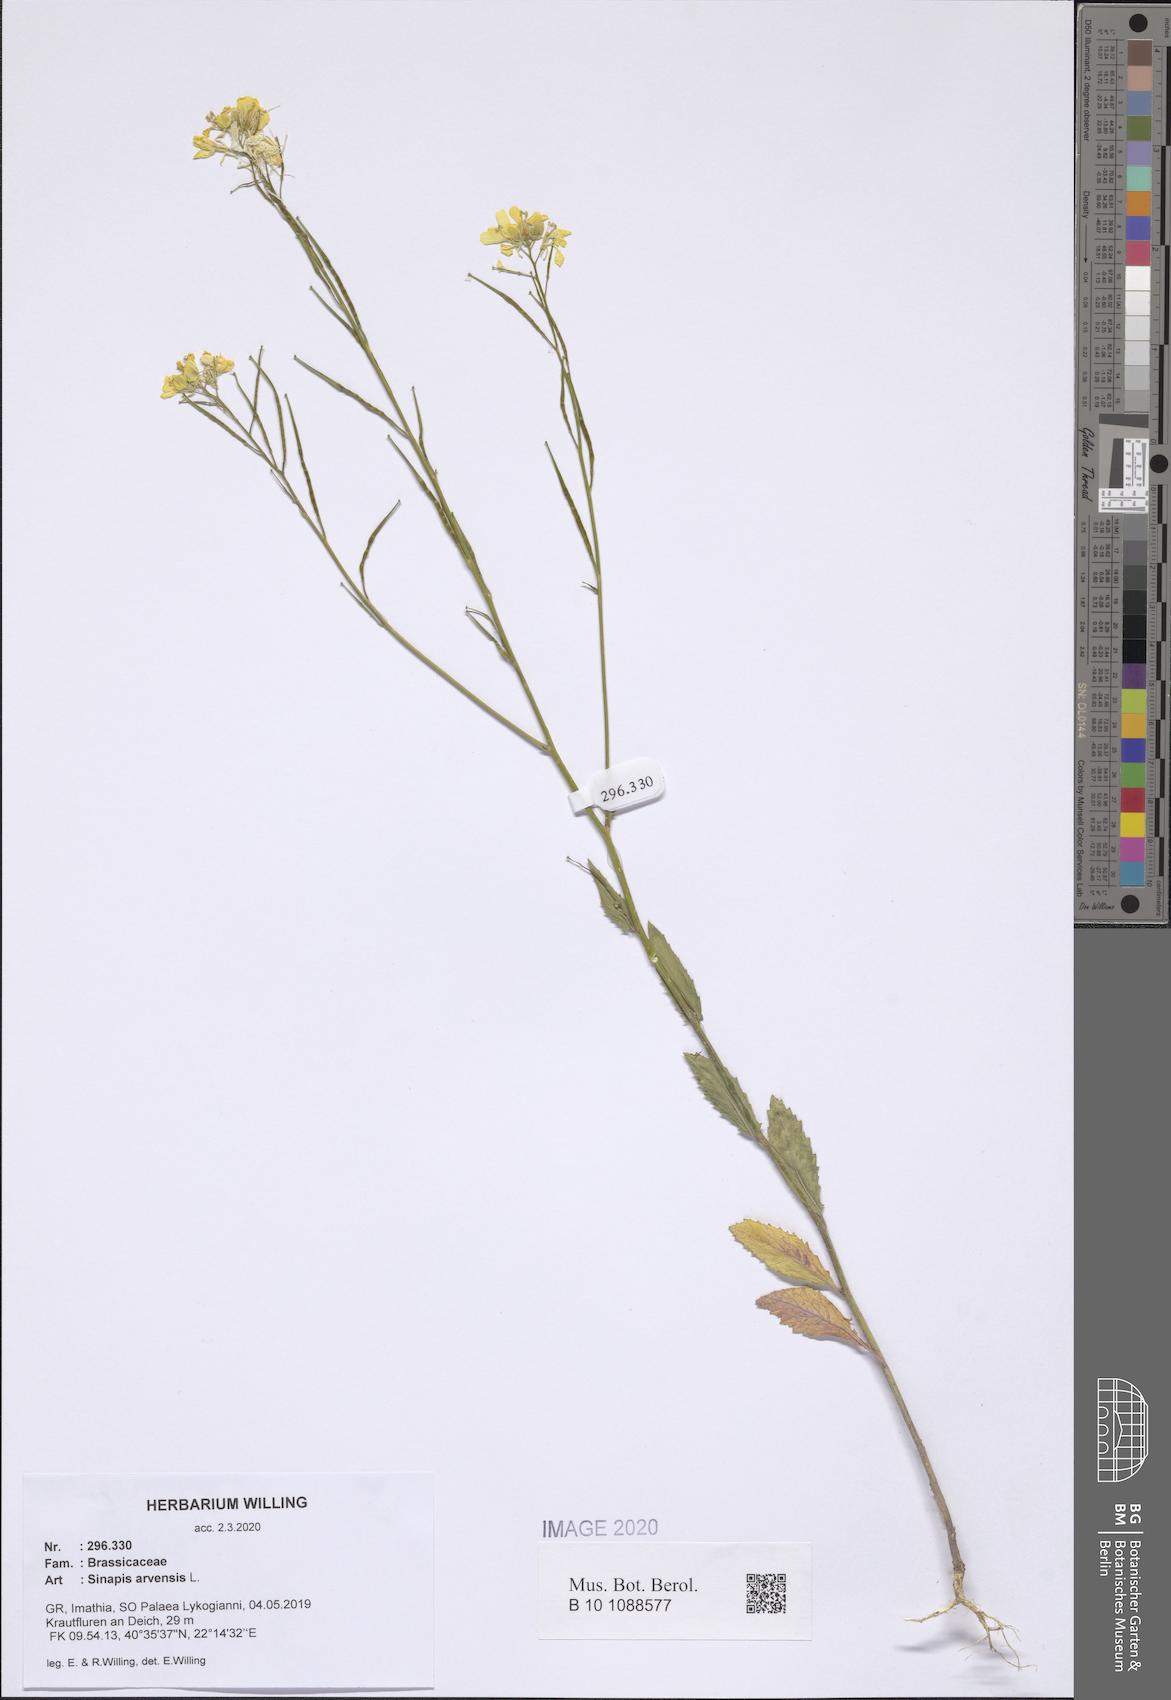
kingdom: Plantae
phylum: Tracheophyta
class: Magnoliopsida
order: Brassicales
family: Brassicaceae
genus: Sinapis
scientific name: Sinapis arvensis
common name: Charlock
